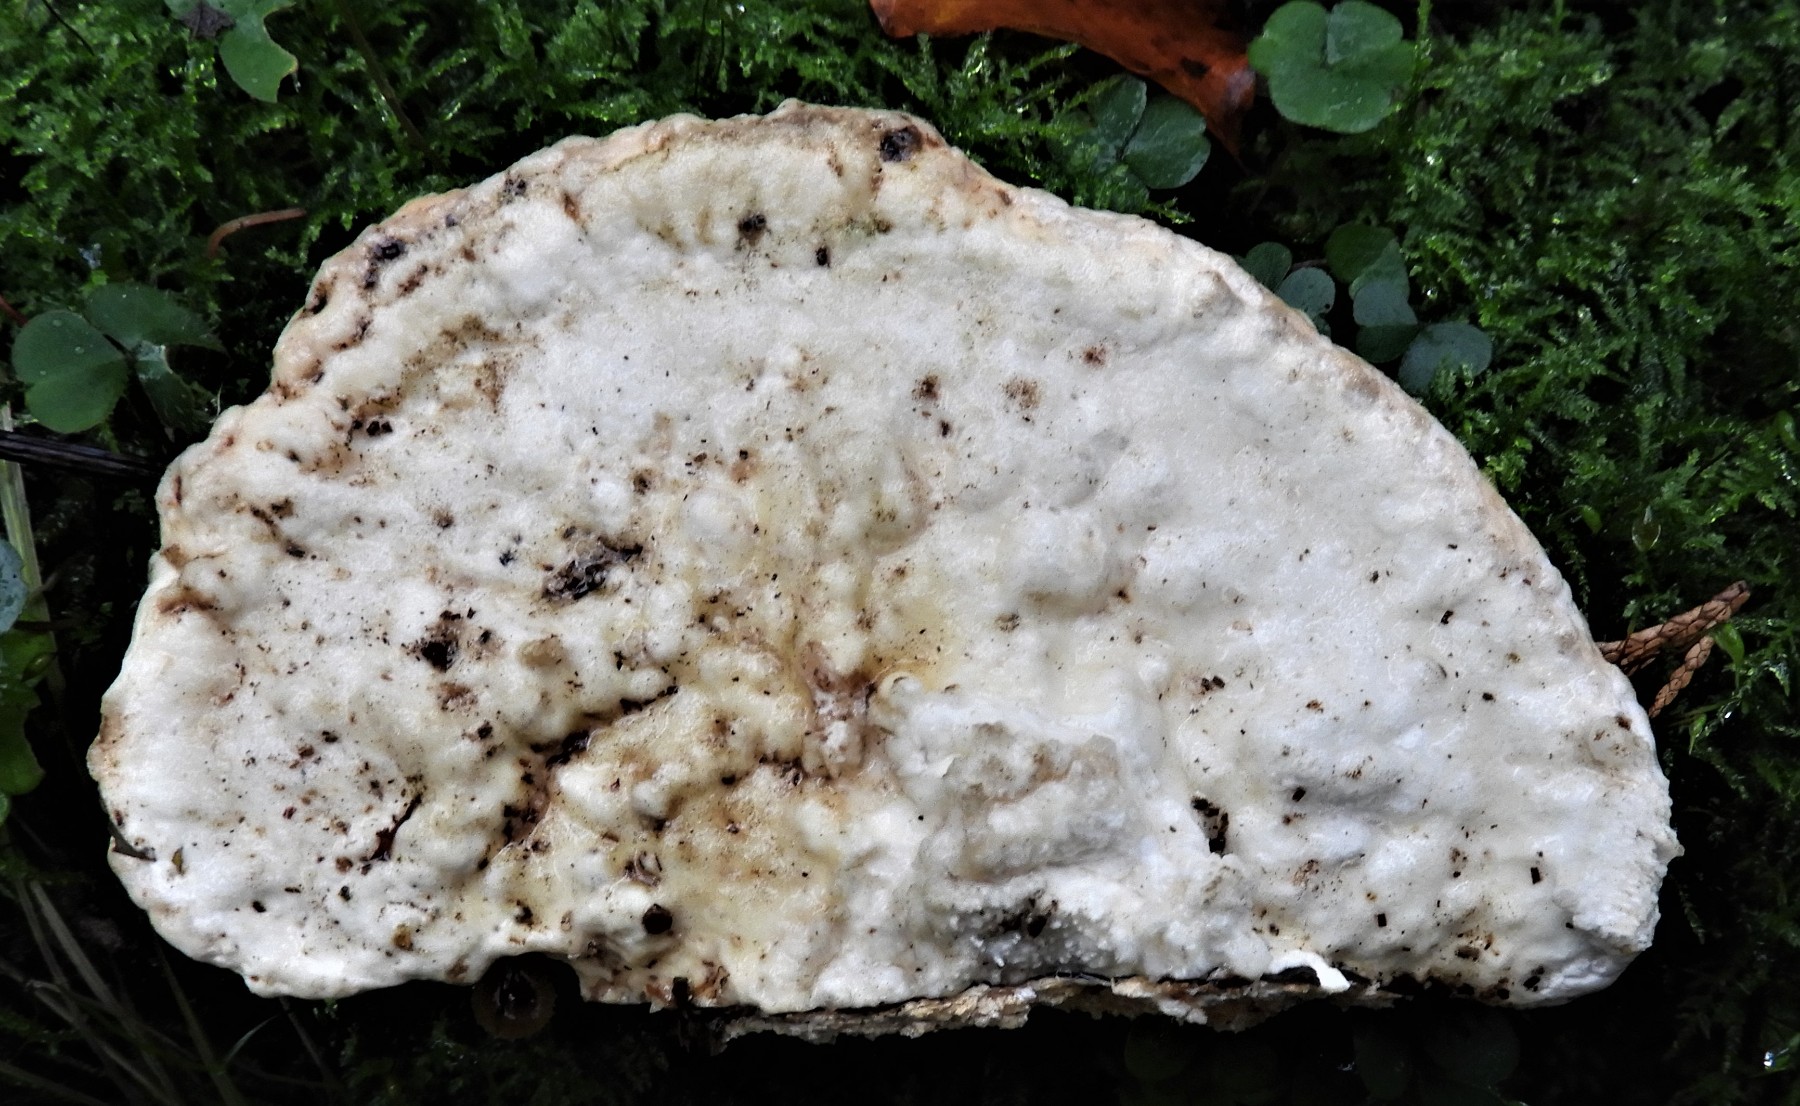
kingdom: Fungi
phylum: Basidiomycota
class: Agaricomycetes
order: Polyporales
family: Polyporaceae
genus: Trametes
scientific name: Trametes gibbosa
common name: puklet læderporesvamp
